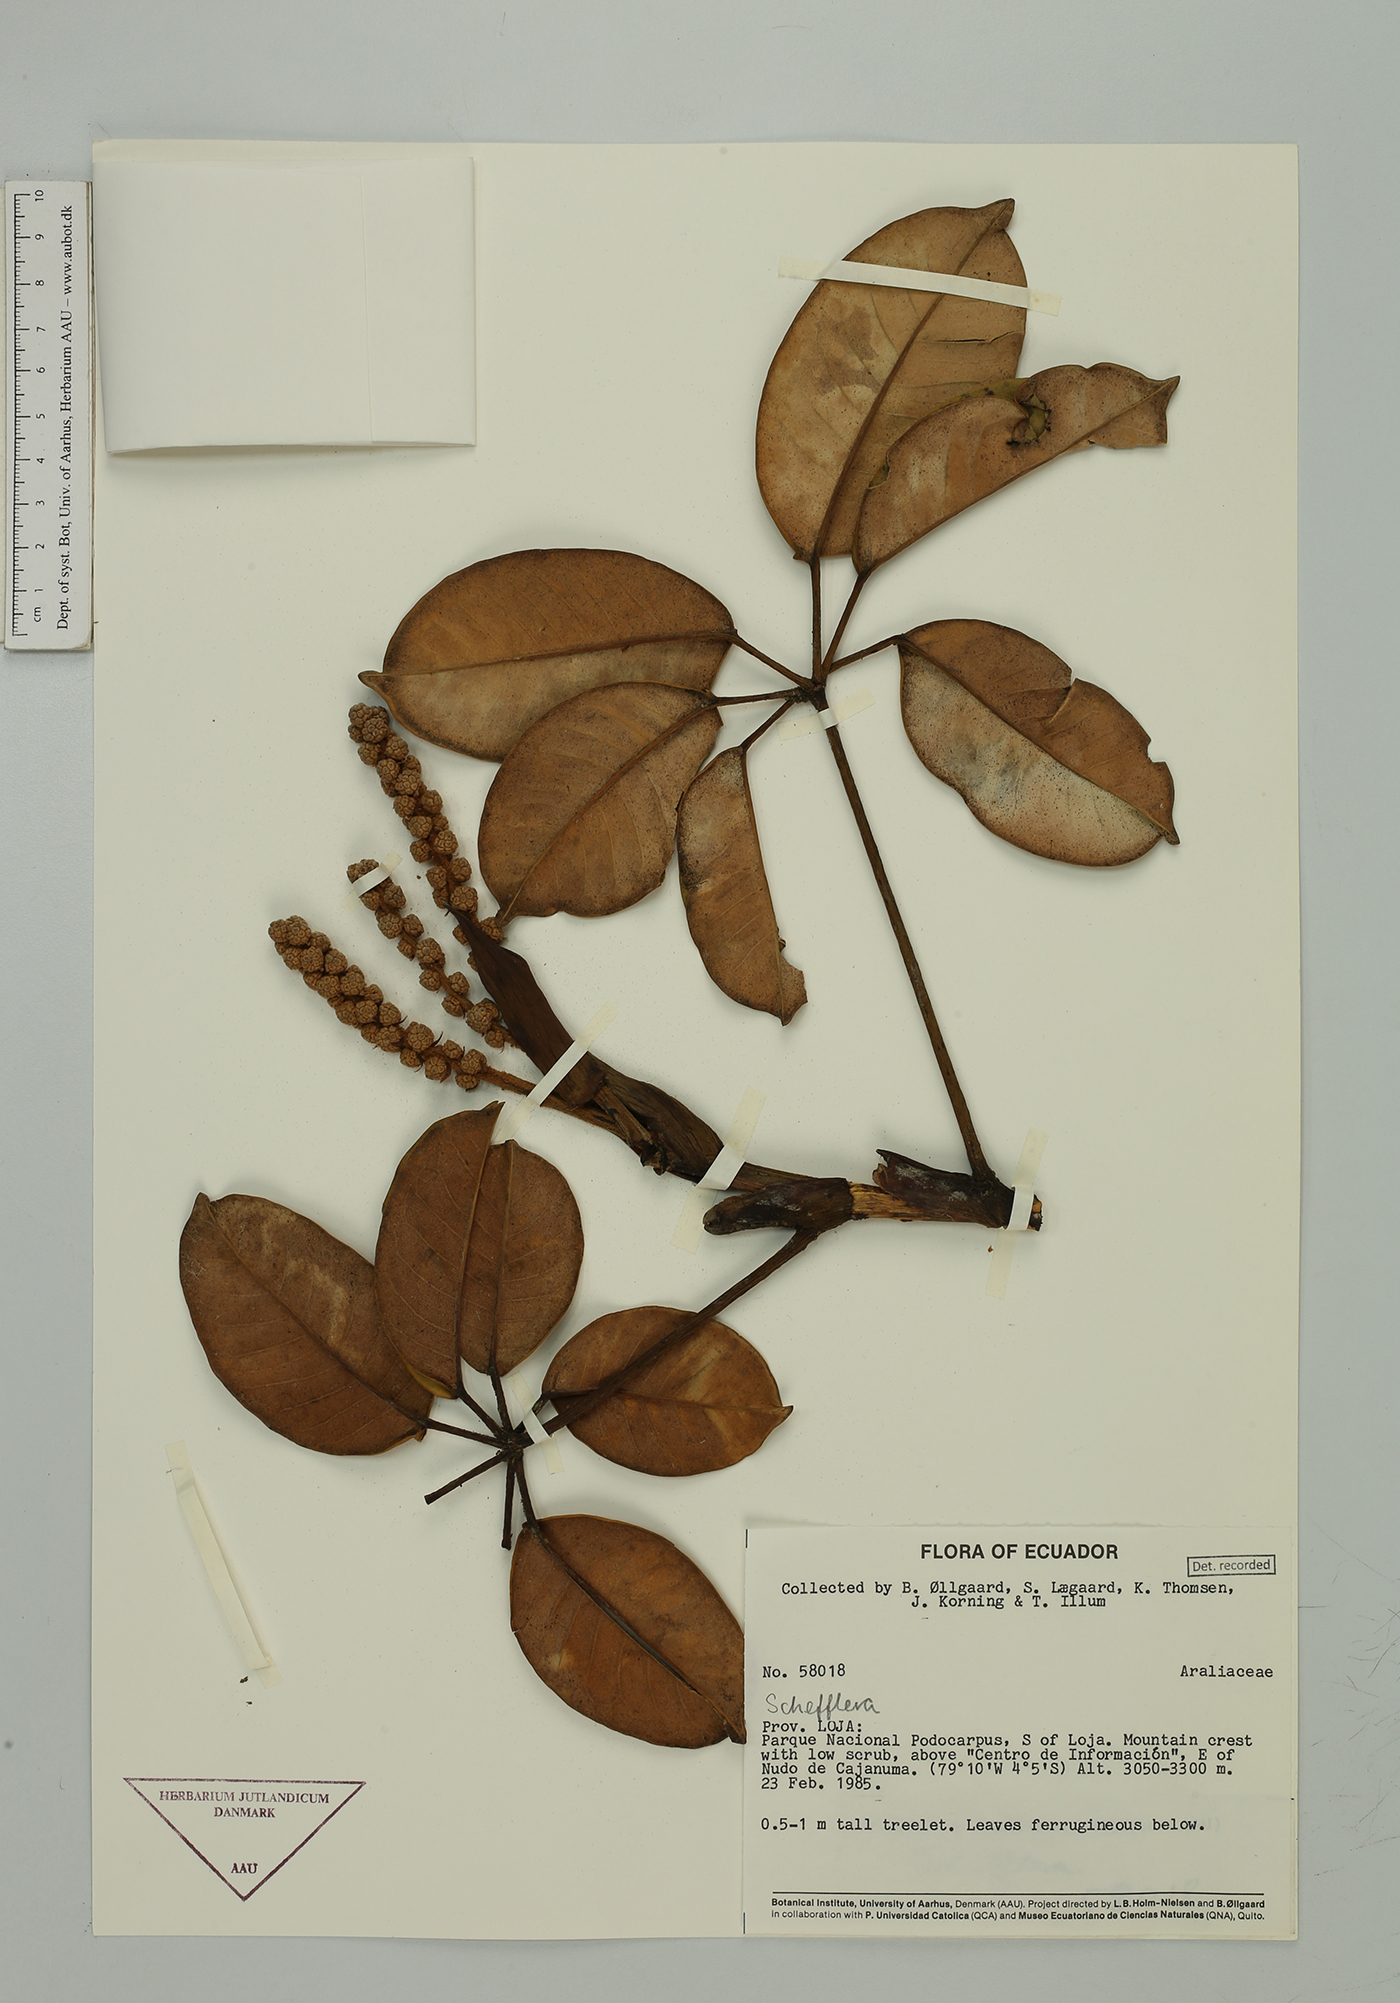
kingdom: Plantae
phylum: Tracheophyta
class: Magnoliopsida
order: Apiales
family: Araliaceae
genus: Sciodaphyllum
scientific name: Sciodaphyllum
